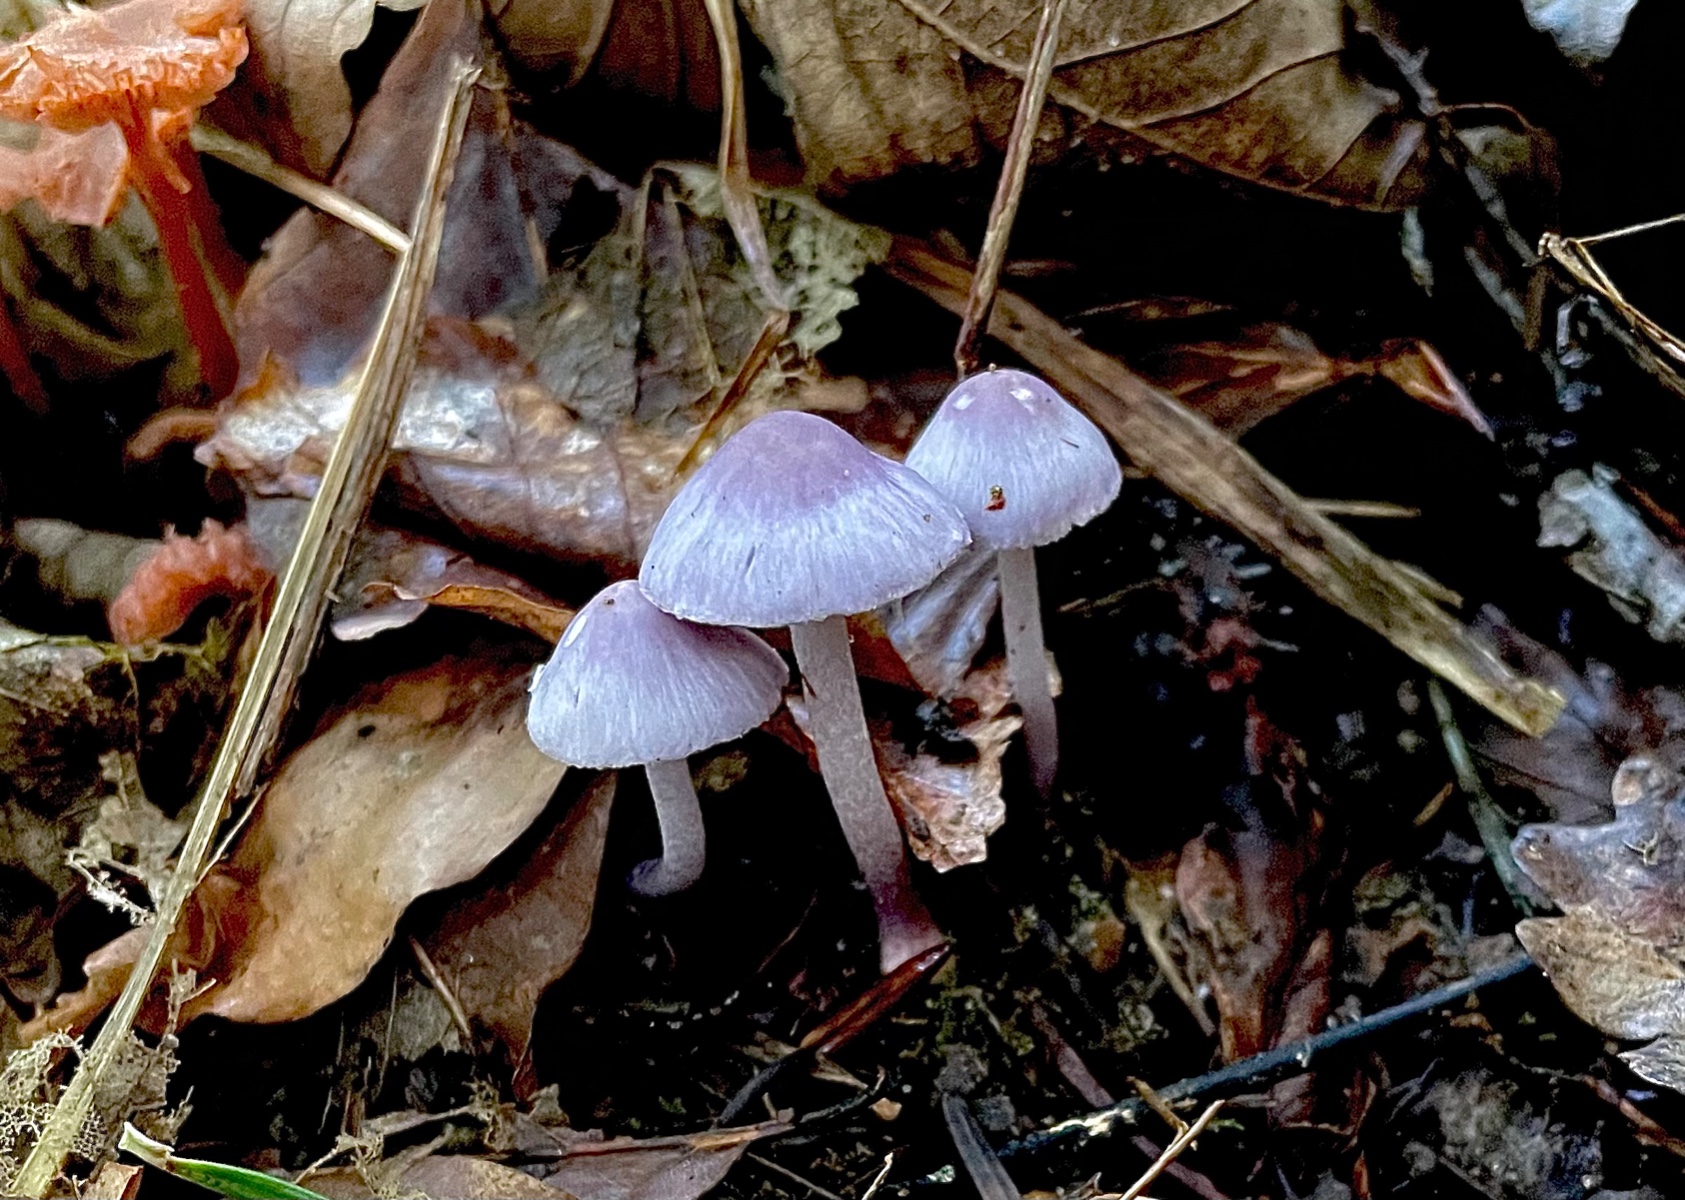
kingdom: Fungi
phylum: Basidiomycota
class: Agaricomycetes
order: Agaricales
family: Inocybaceae
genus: Inocybe
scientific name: Inocybe geophylla
